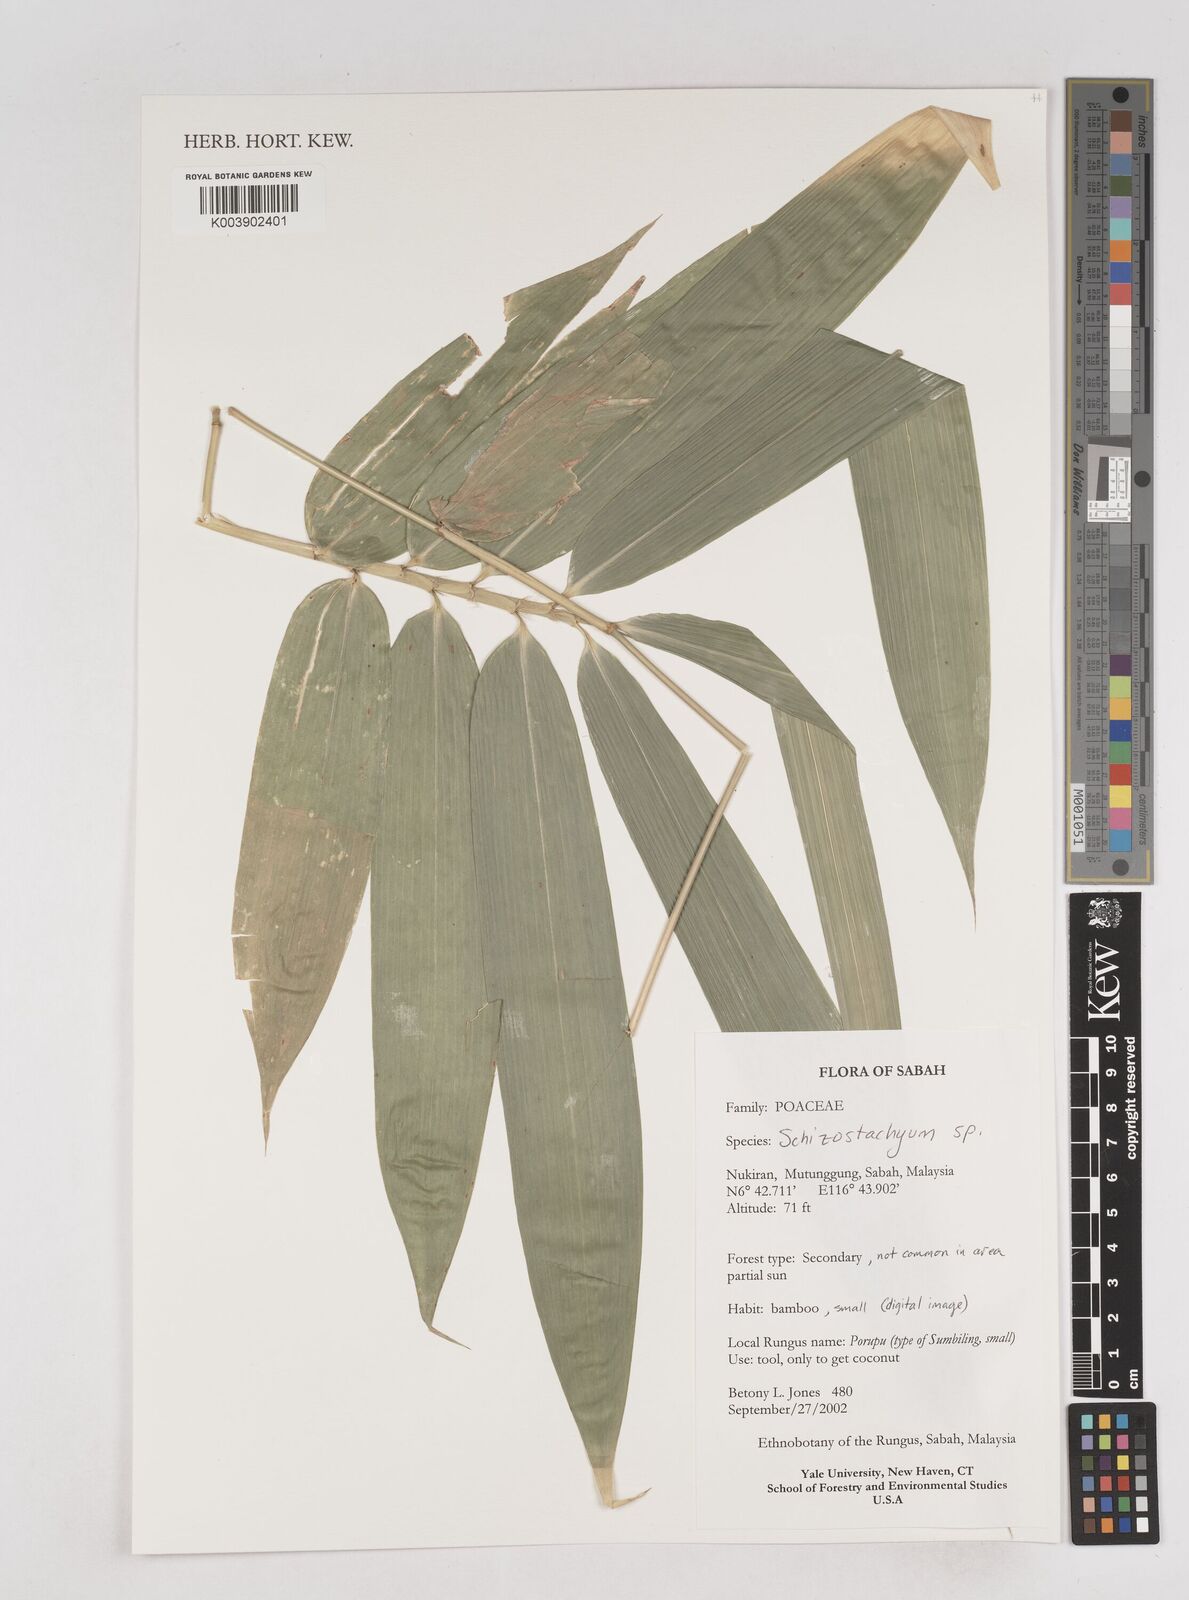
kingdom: Plantae
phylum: Tracheophyta
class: Liliopsida
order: Poales
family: Poaceae
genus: Schizostachyum
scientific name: Schizostachyum
